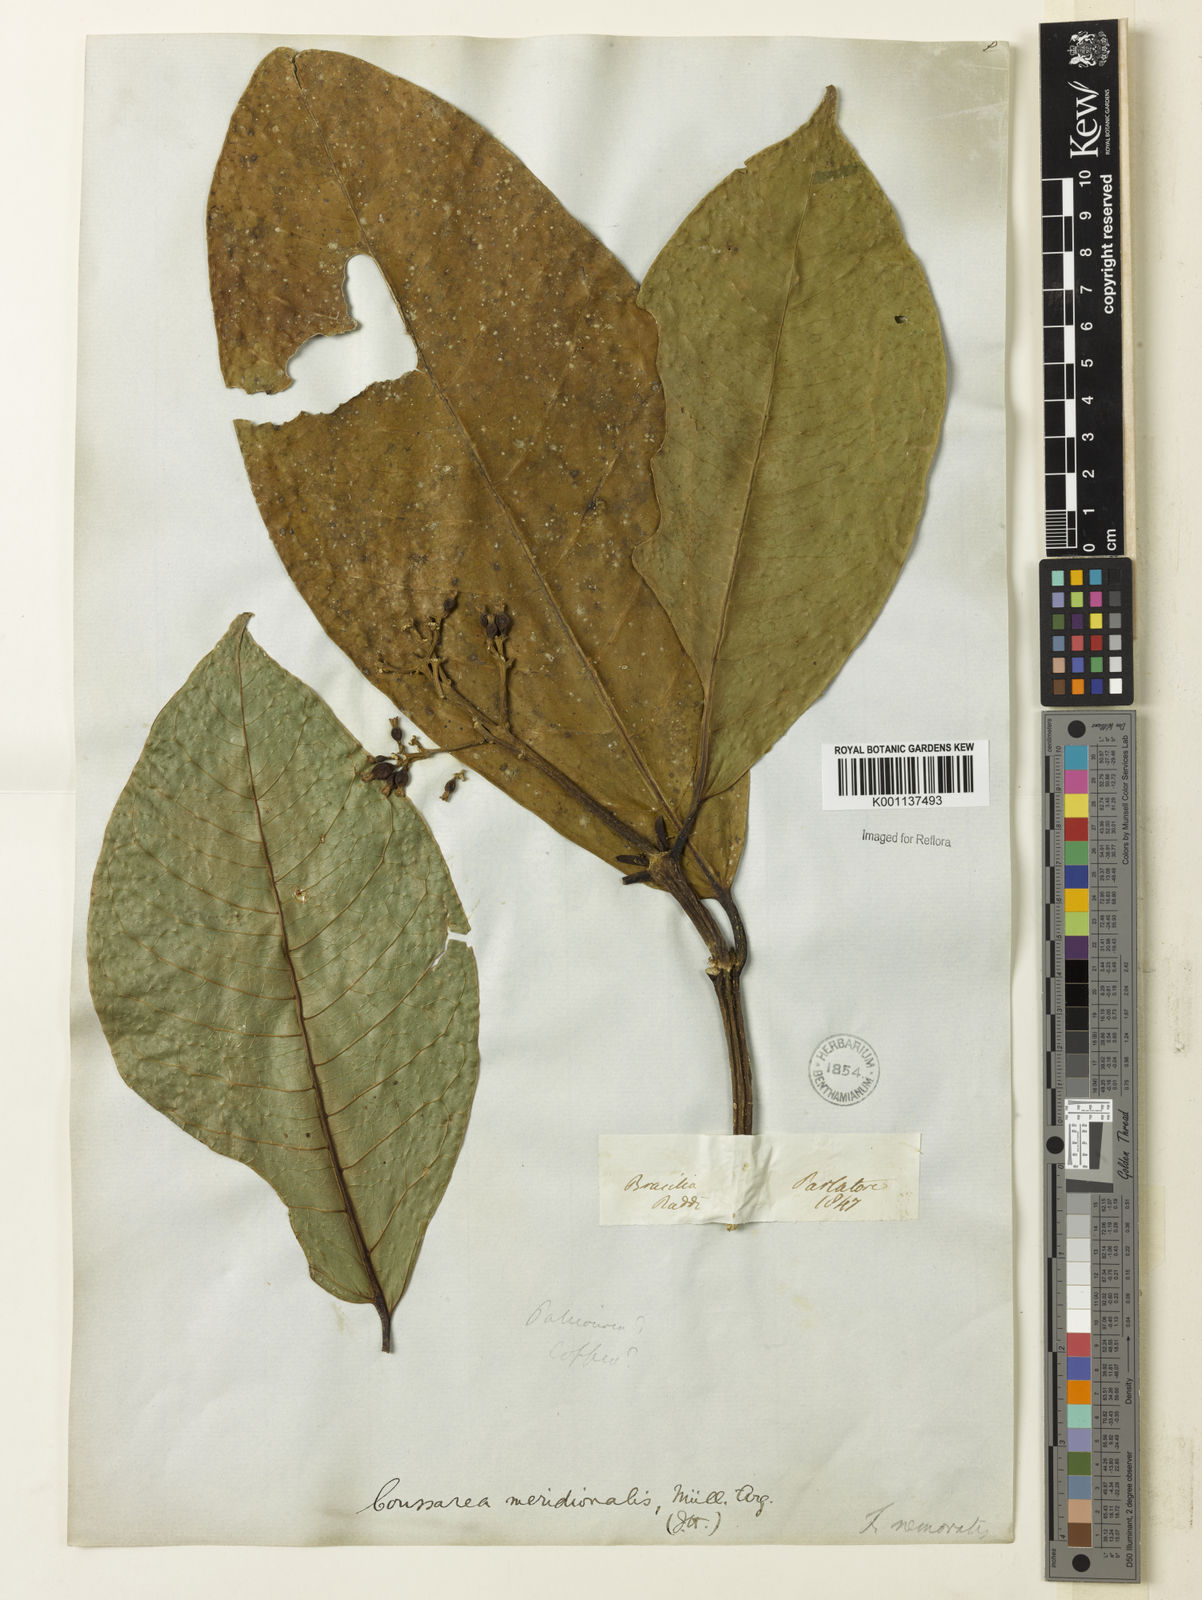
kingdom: Plantae
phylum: Tracheophyta
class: Magnoliopsida
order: Gentianales
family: Rubiaceae
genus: Coussarea
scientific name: Coussarea
